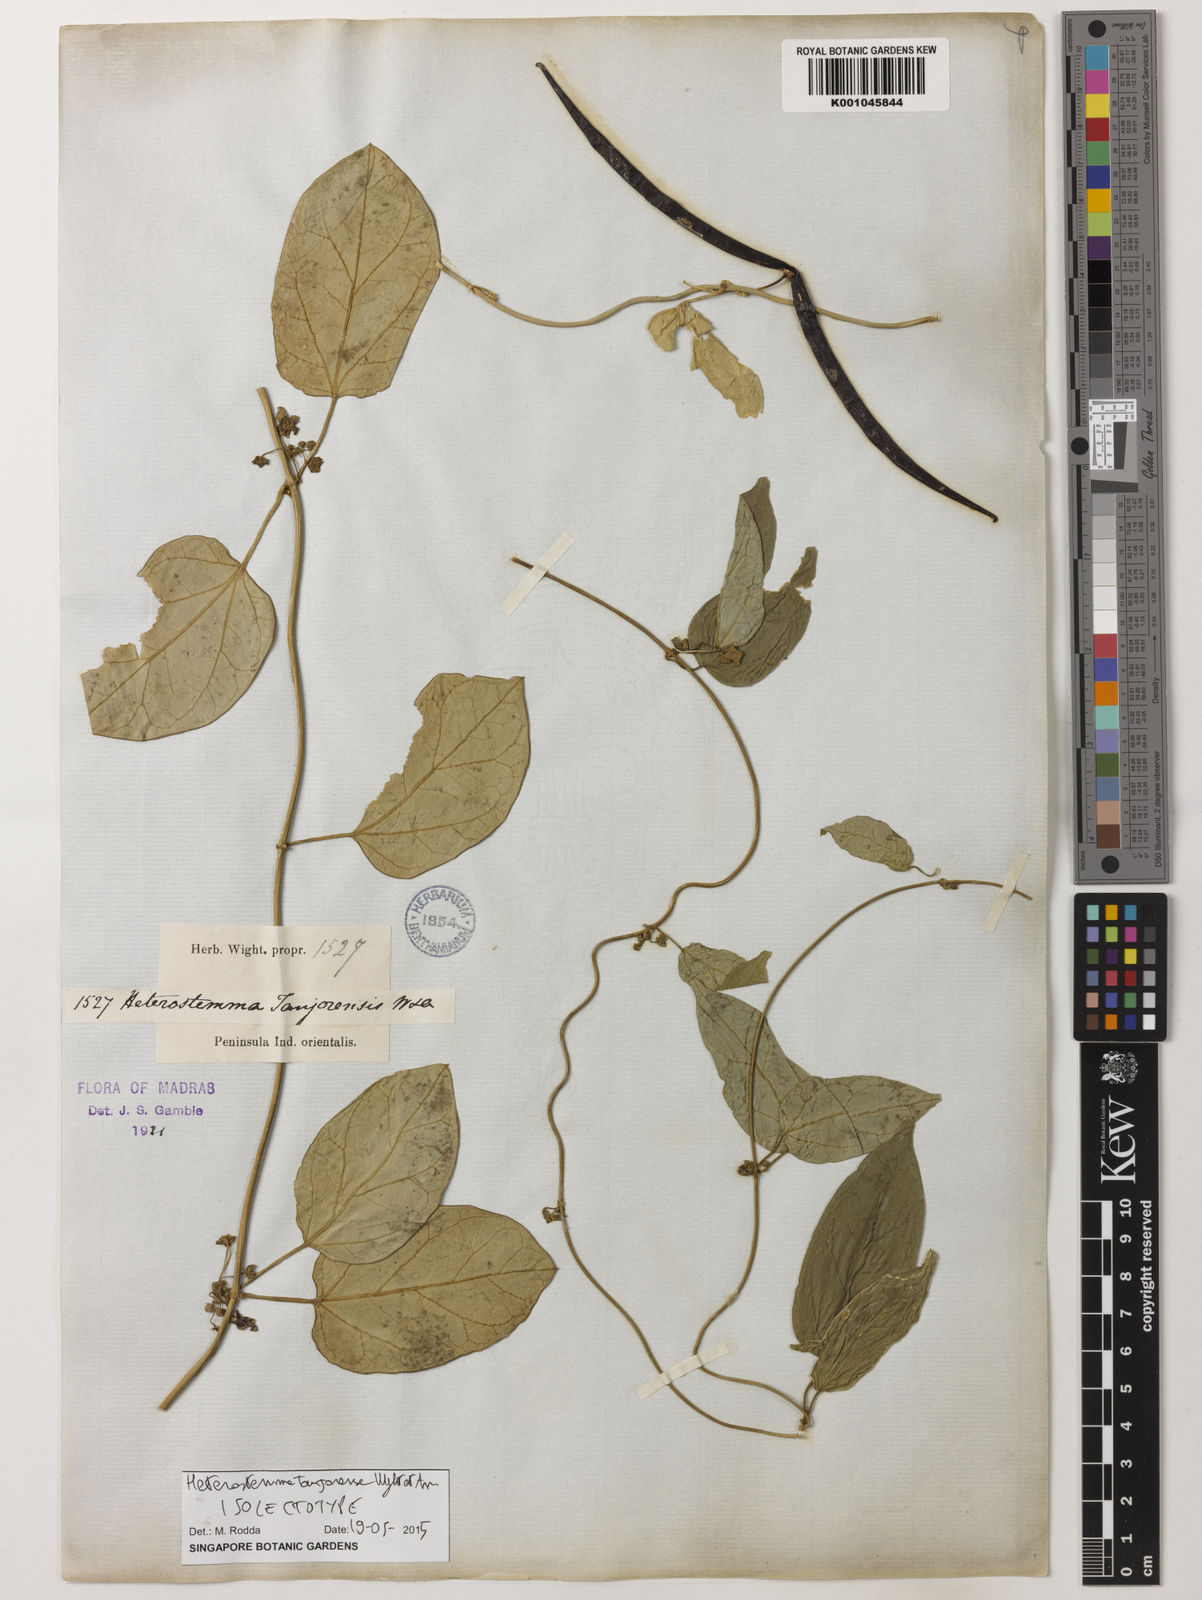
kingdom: Plantae
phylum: Tracheophyta
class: Magnoliopsida
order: Gentianales
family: Apocynaceae
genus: Heterostemma
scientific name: Heterostemma
